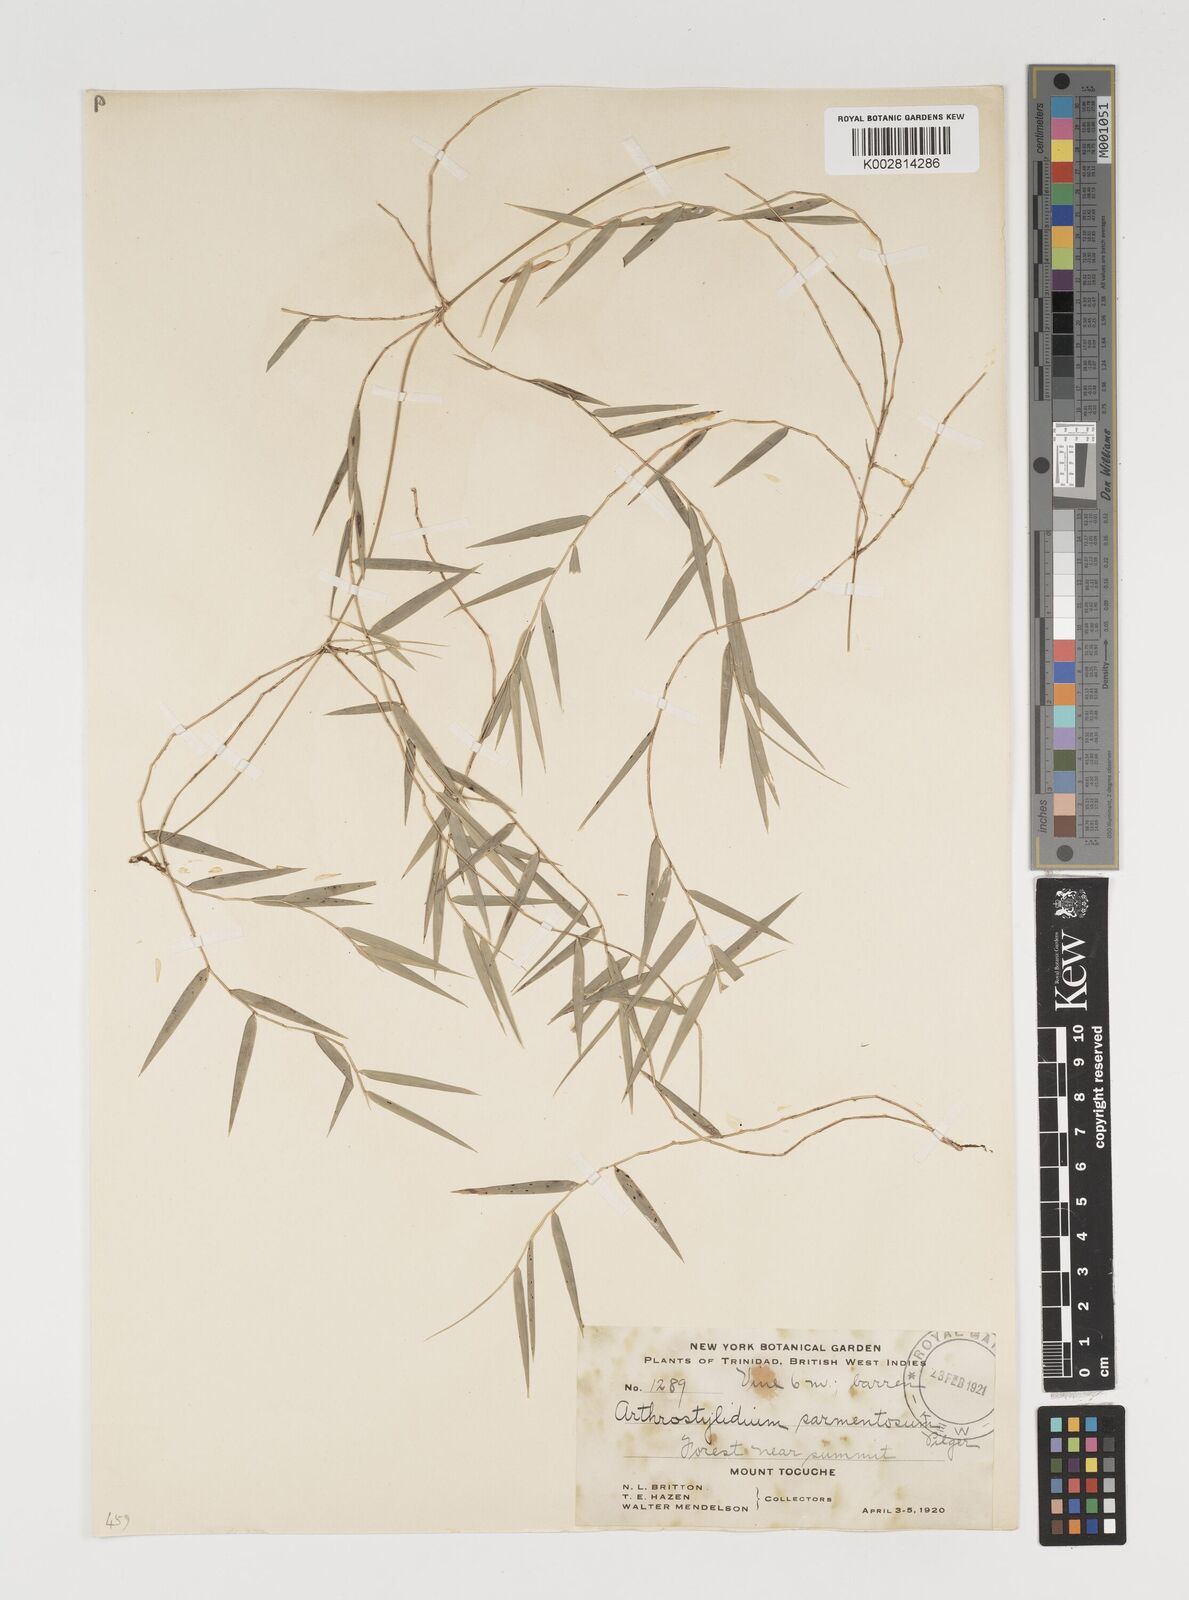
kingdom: Plantae
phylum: Tracheophyta
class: Liliopsida
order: Poales
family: Poaceae
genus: Arthrostylidium
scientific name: Arthrostylidium sarmentosum
